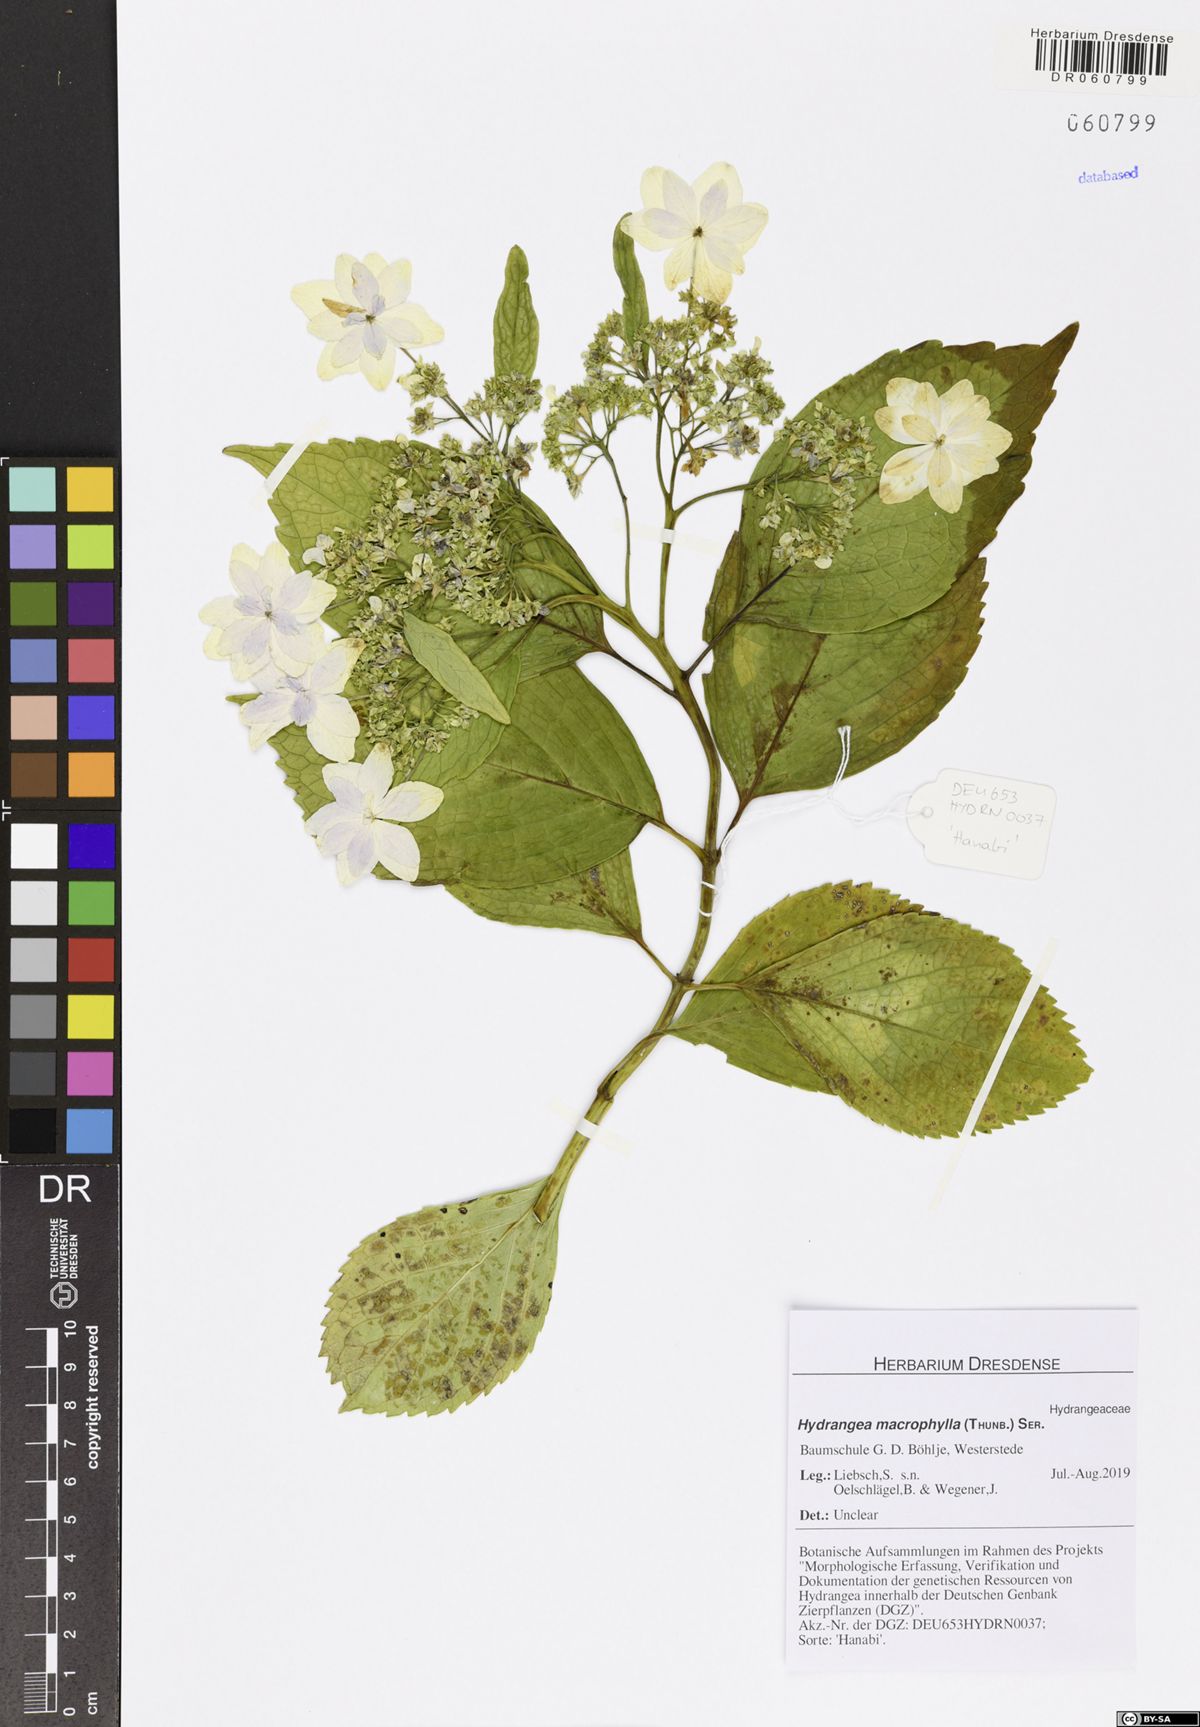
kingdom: Plantae
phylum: Tracheophyta
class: Magnoliopsida
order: Cornales
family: Hydrangeaceae
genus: Hydrangea
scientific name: Hydrangea macrophylla
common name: Hydrangea
